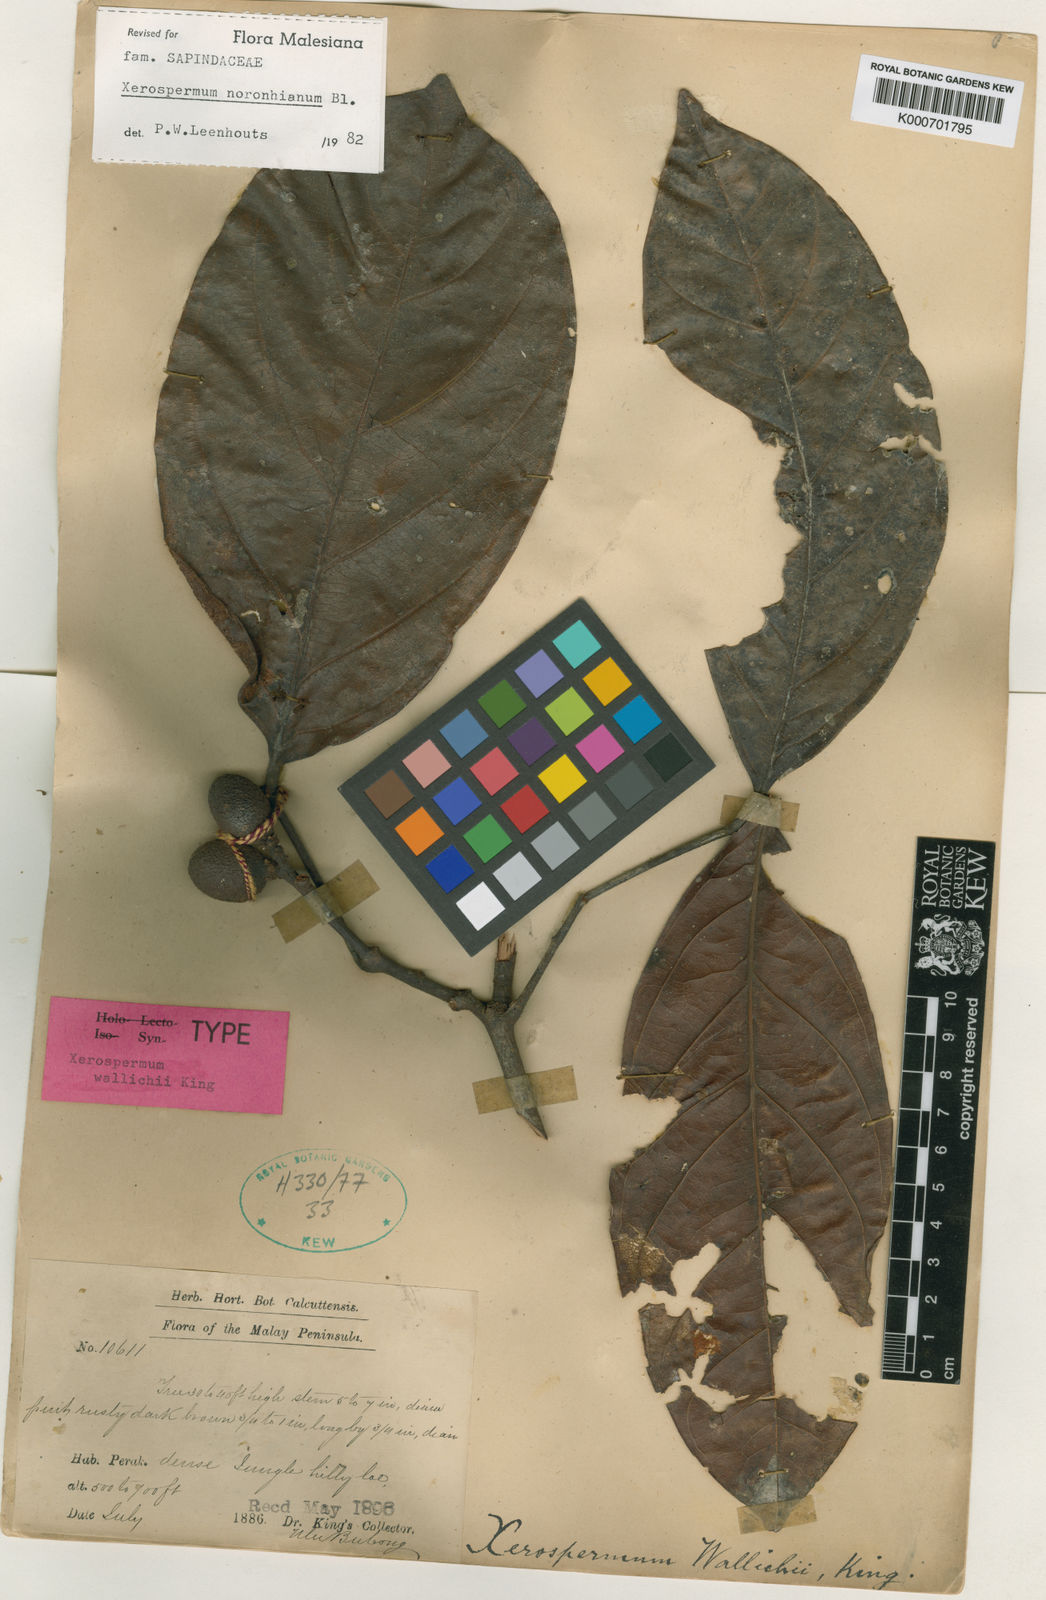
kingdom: Plantae
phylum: Tracheophyta
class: Magnoliopsida
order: Sapindales
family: Sapindaceae
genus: Xerospermum
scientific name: Xerospermum noronhianum
